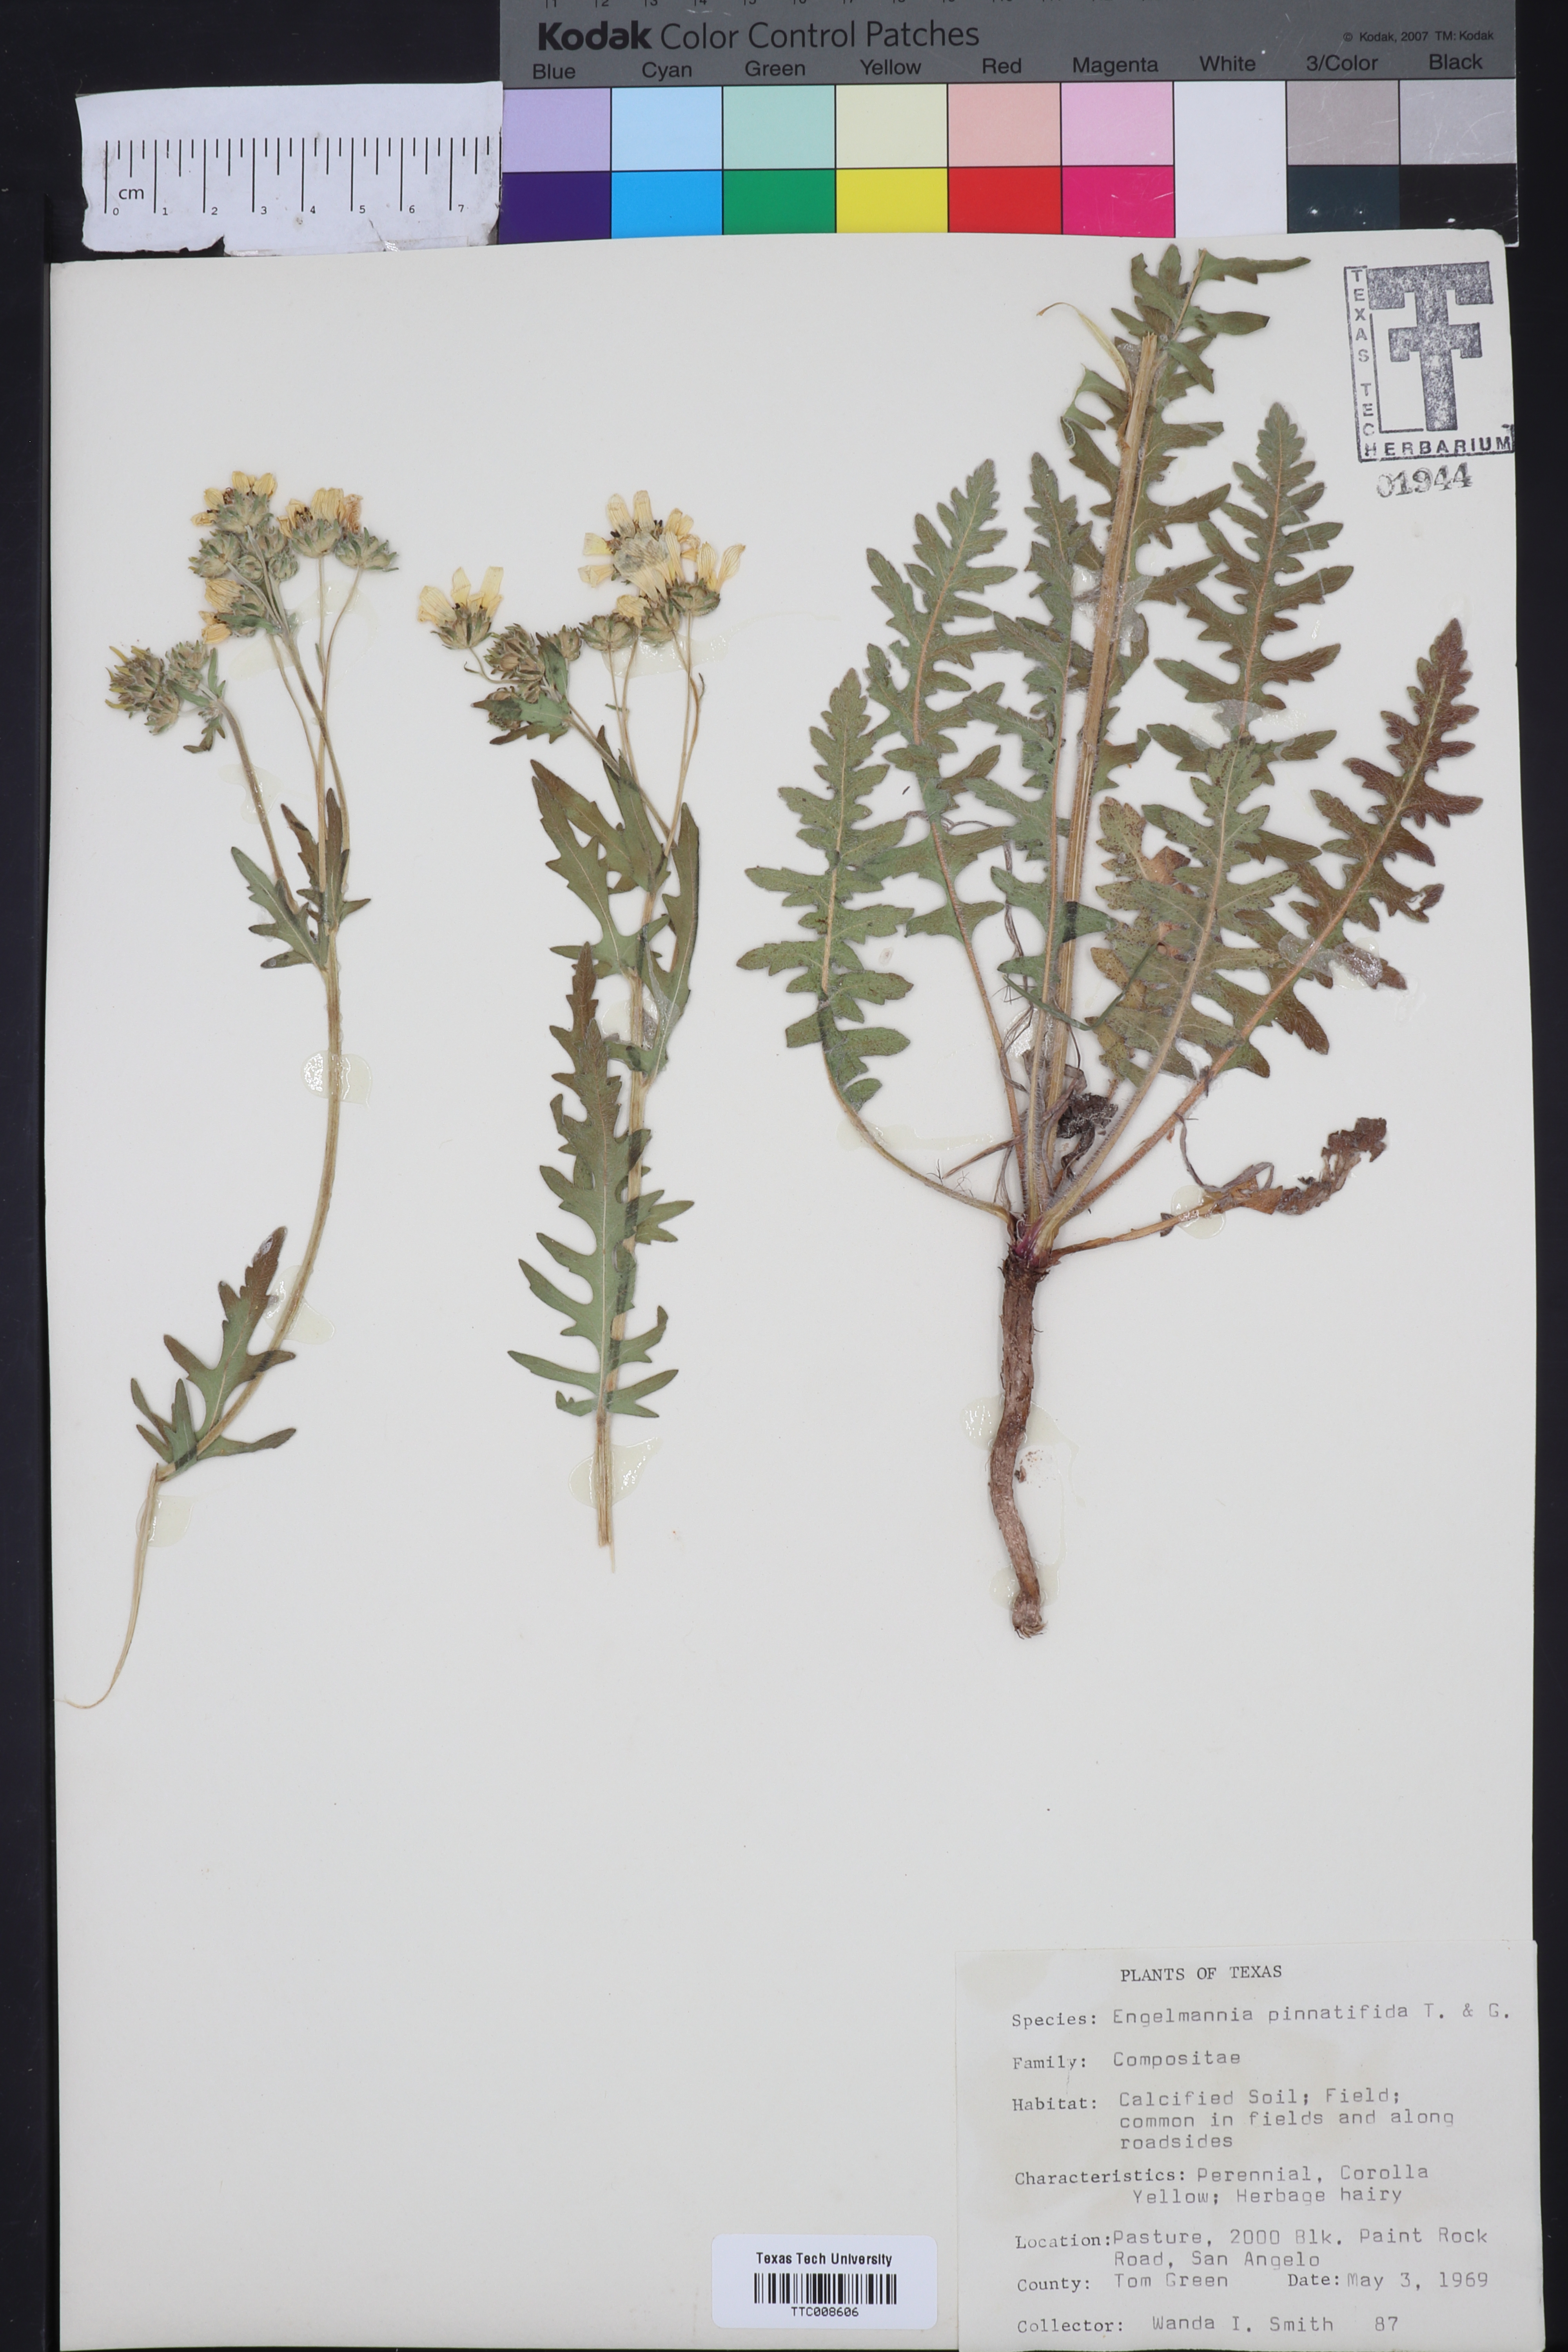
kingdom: Plantae
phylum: Tracheophyta
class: Magnoliopsida
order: Asterales
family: Asteraceae
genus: Engelmannia
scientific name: Engelmannia peristenia
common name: Engelmann's daisy
